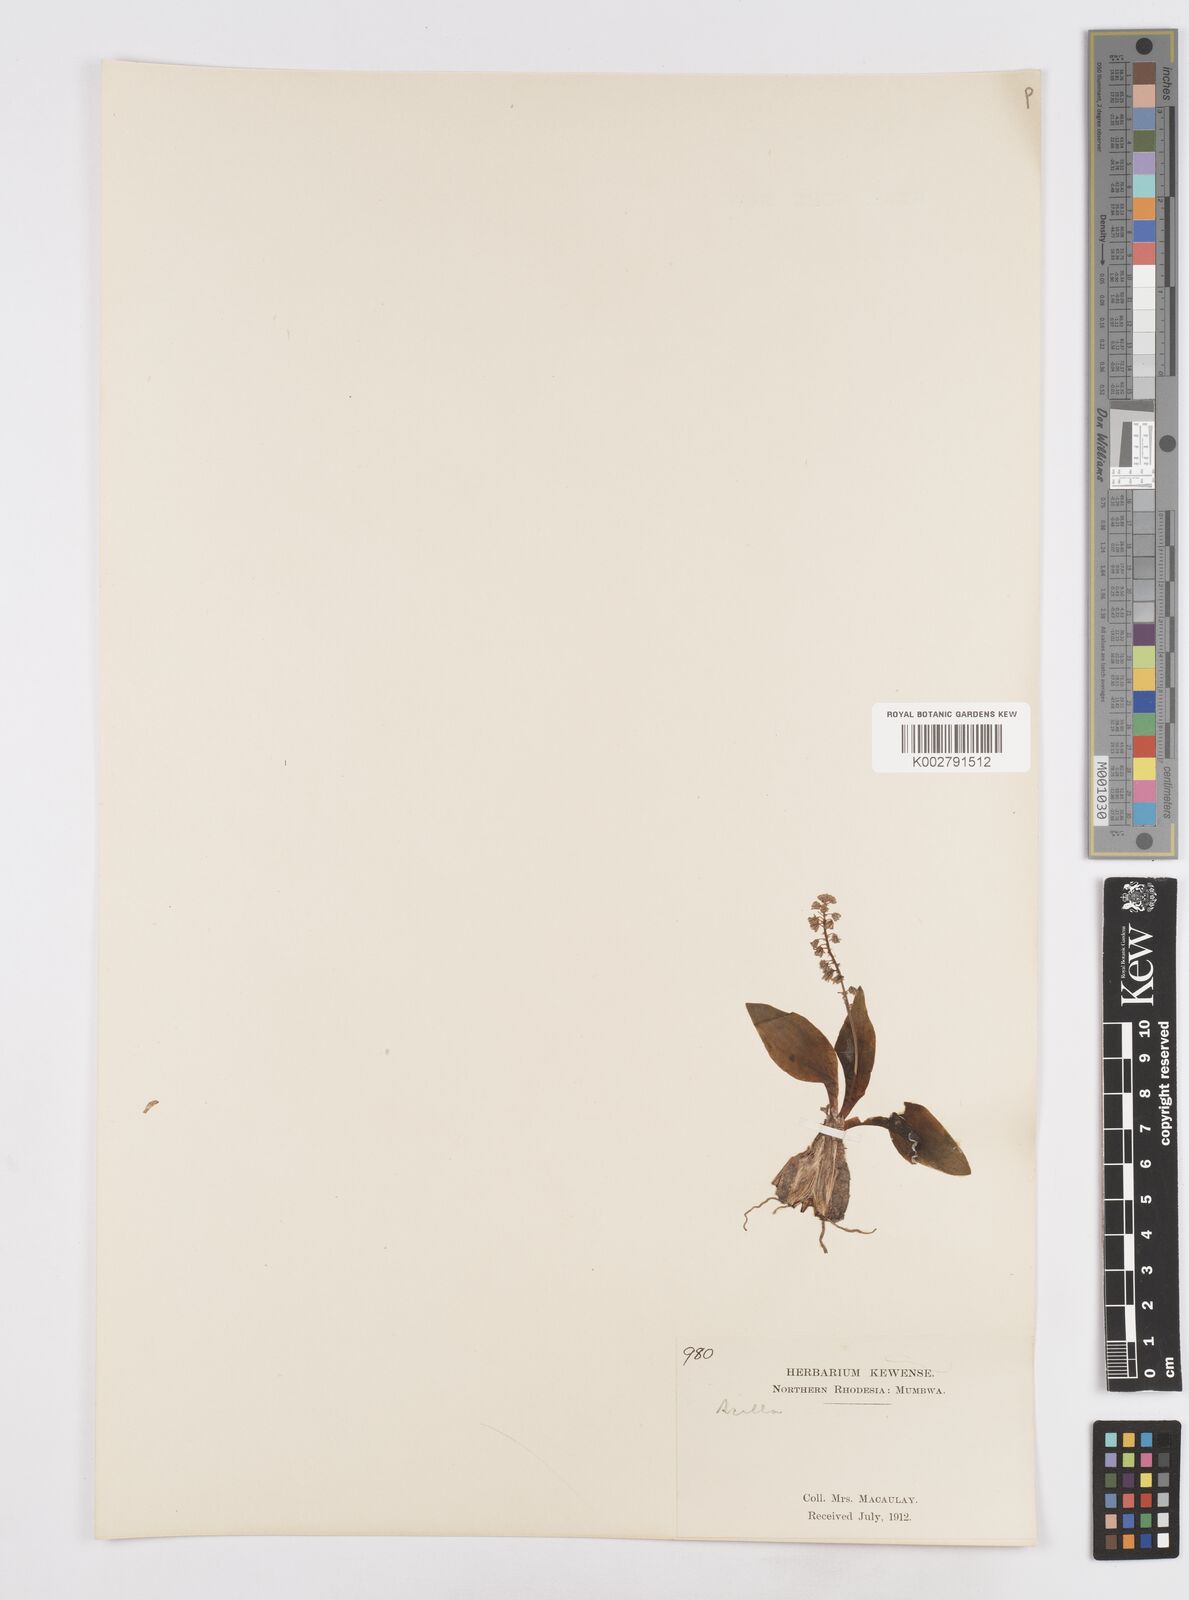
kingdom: Plantae
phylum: Tracheophyta
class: Liliopsida
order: Asparagales
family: Asparagaceae
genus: Scilla
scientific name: Scilla
